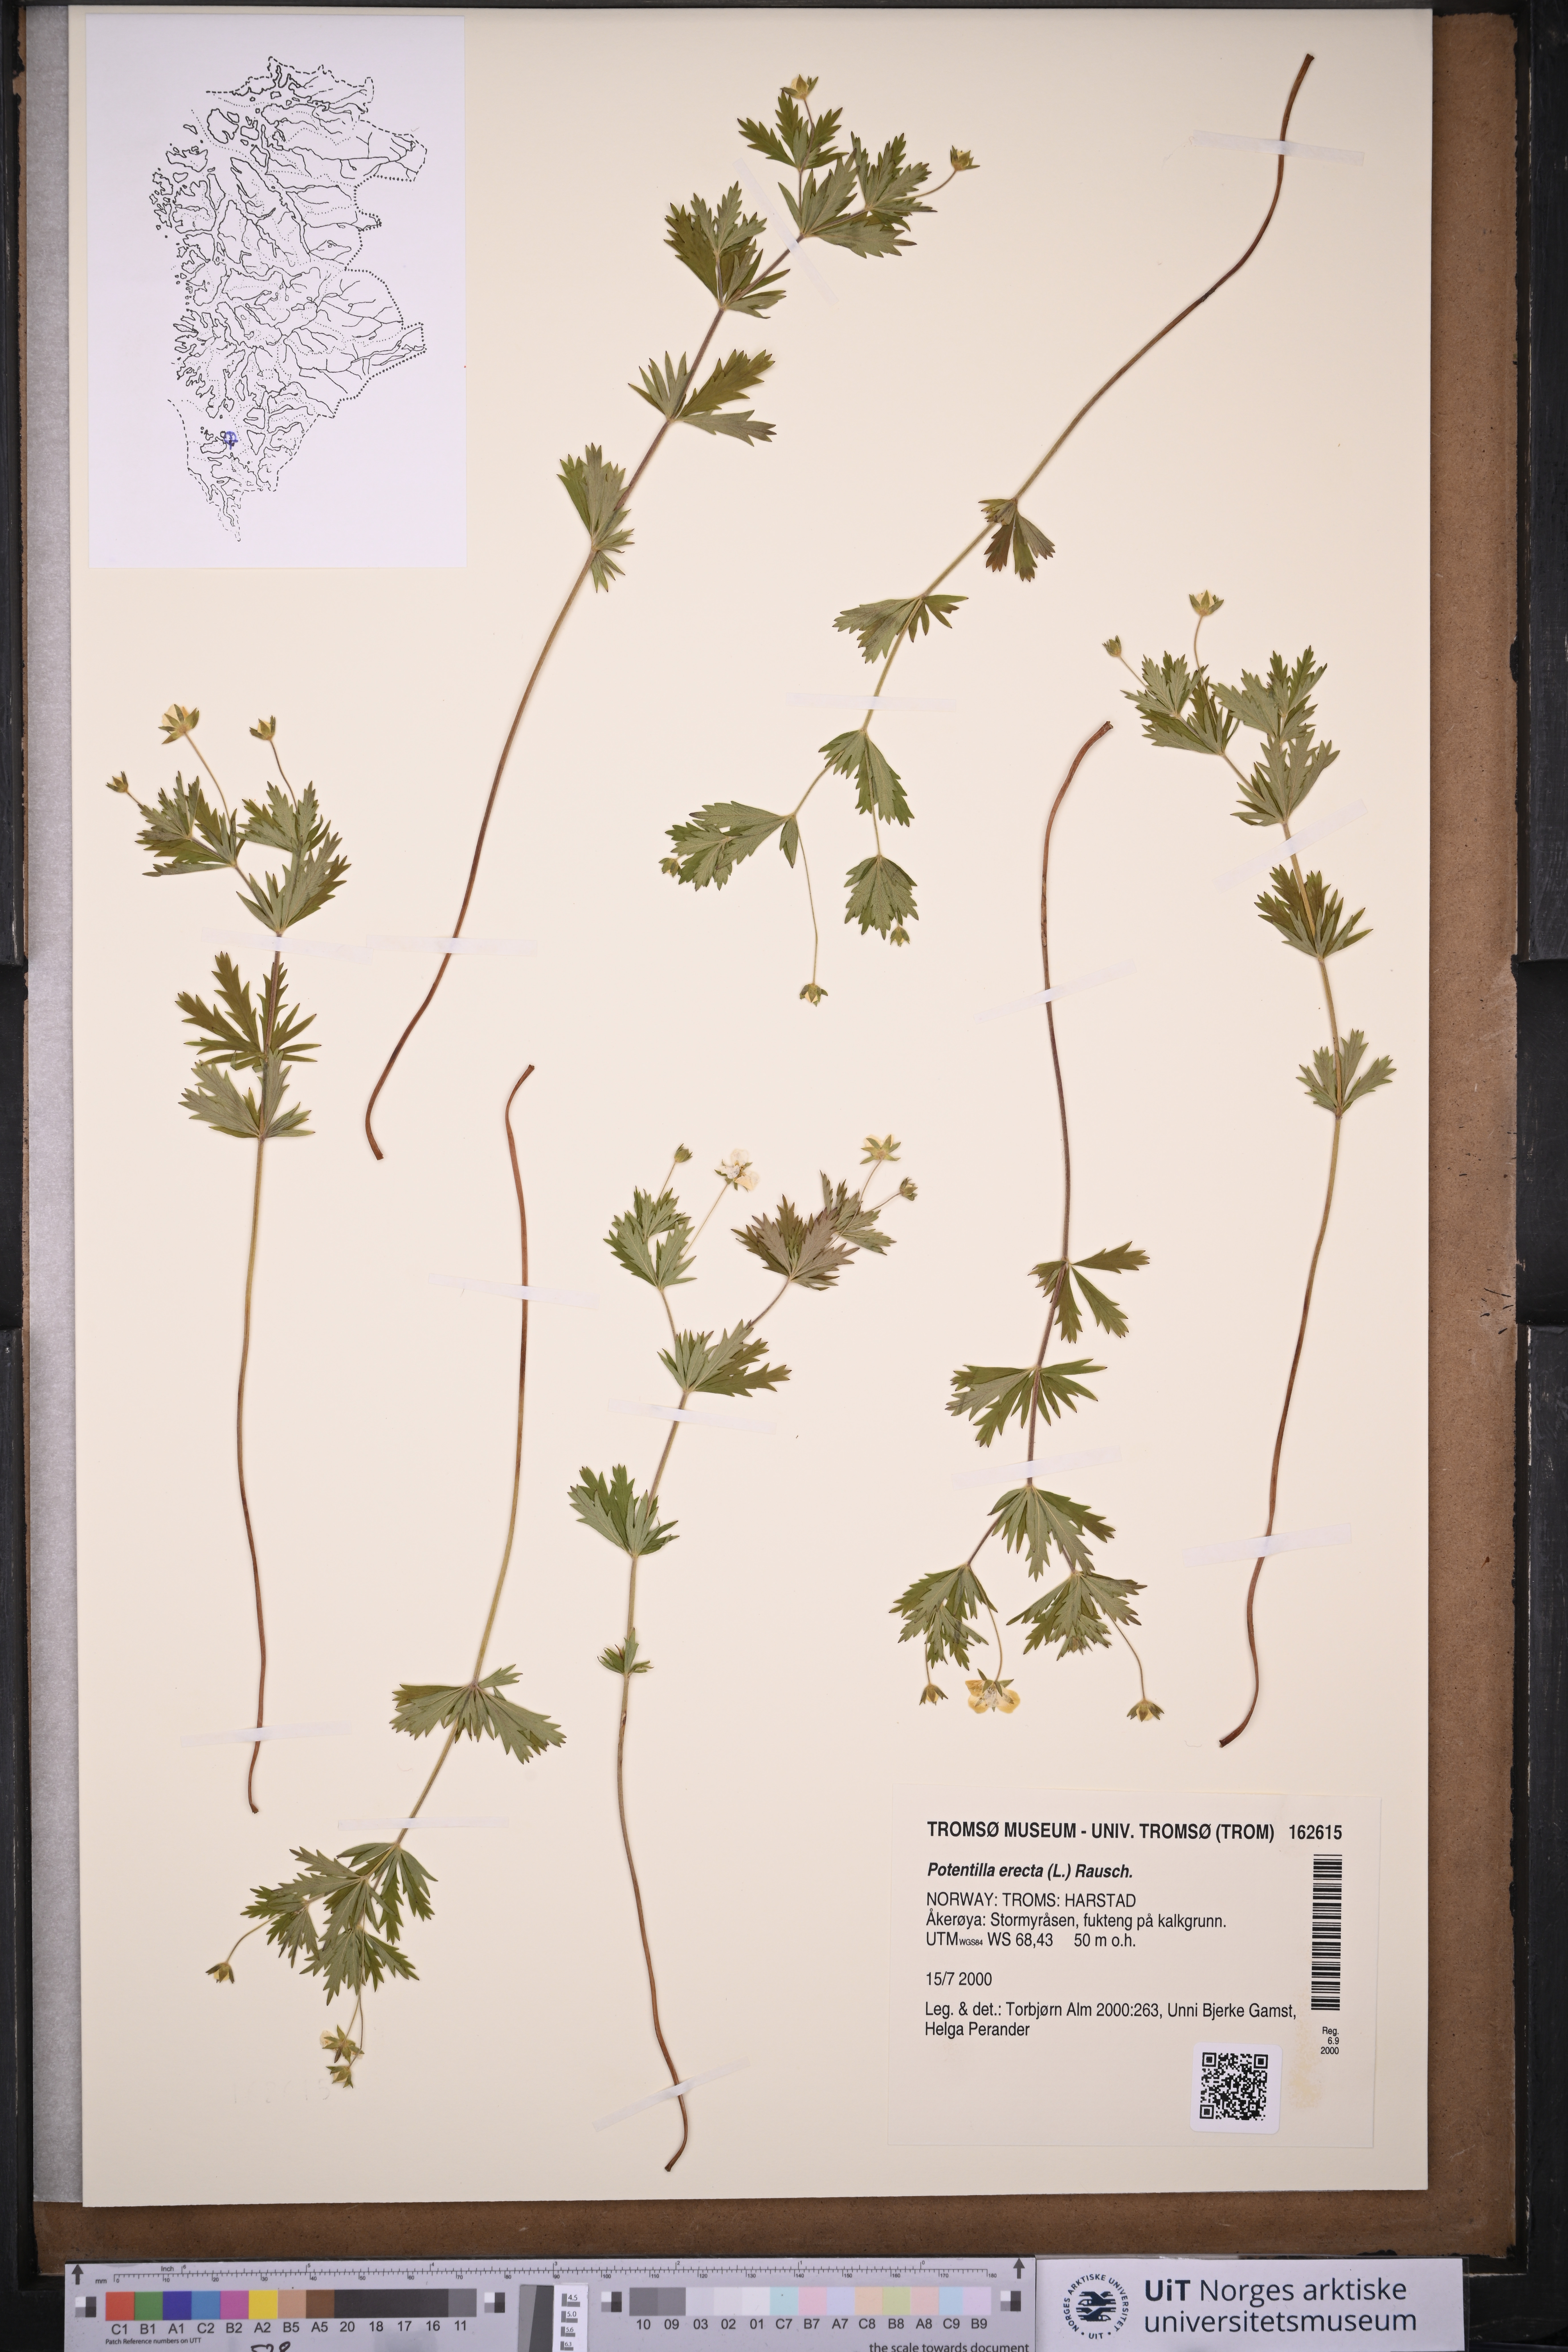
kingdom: Plantae
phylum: Tracheophyta
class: Magnoliopsida
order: Rosales
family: Rosaceae
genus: Potentilla
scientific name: Potentilla erecta
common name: Tormentil
